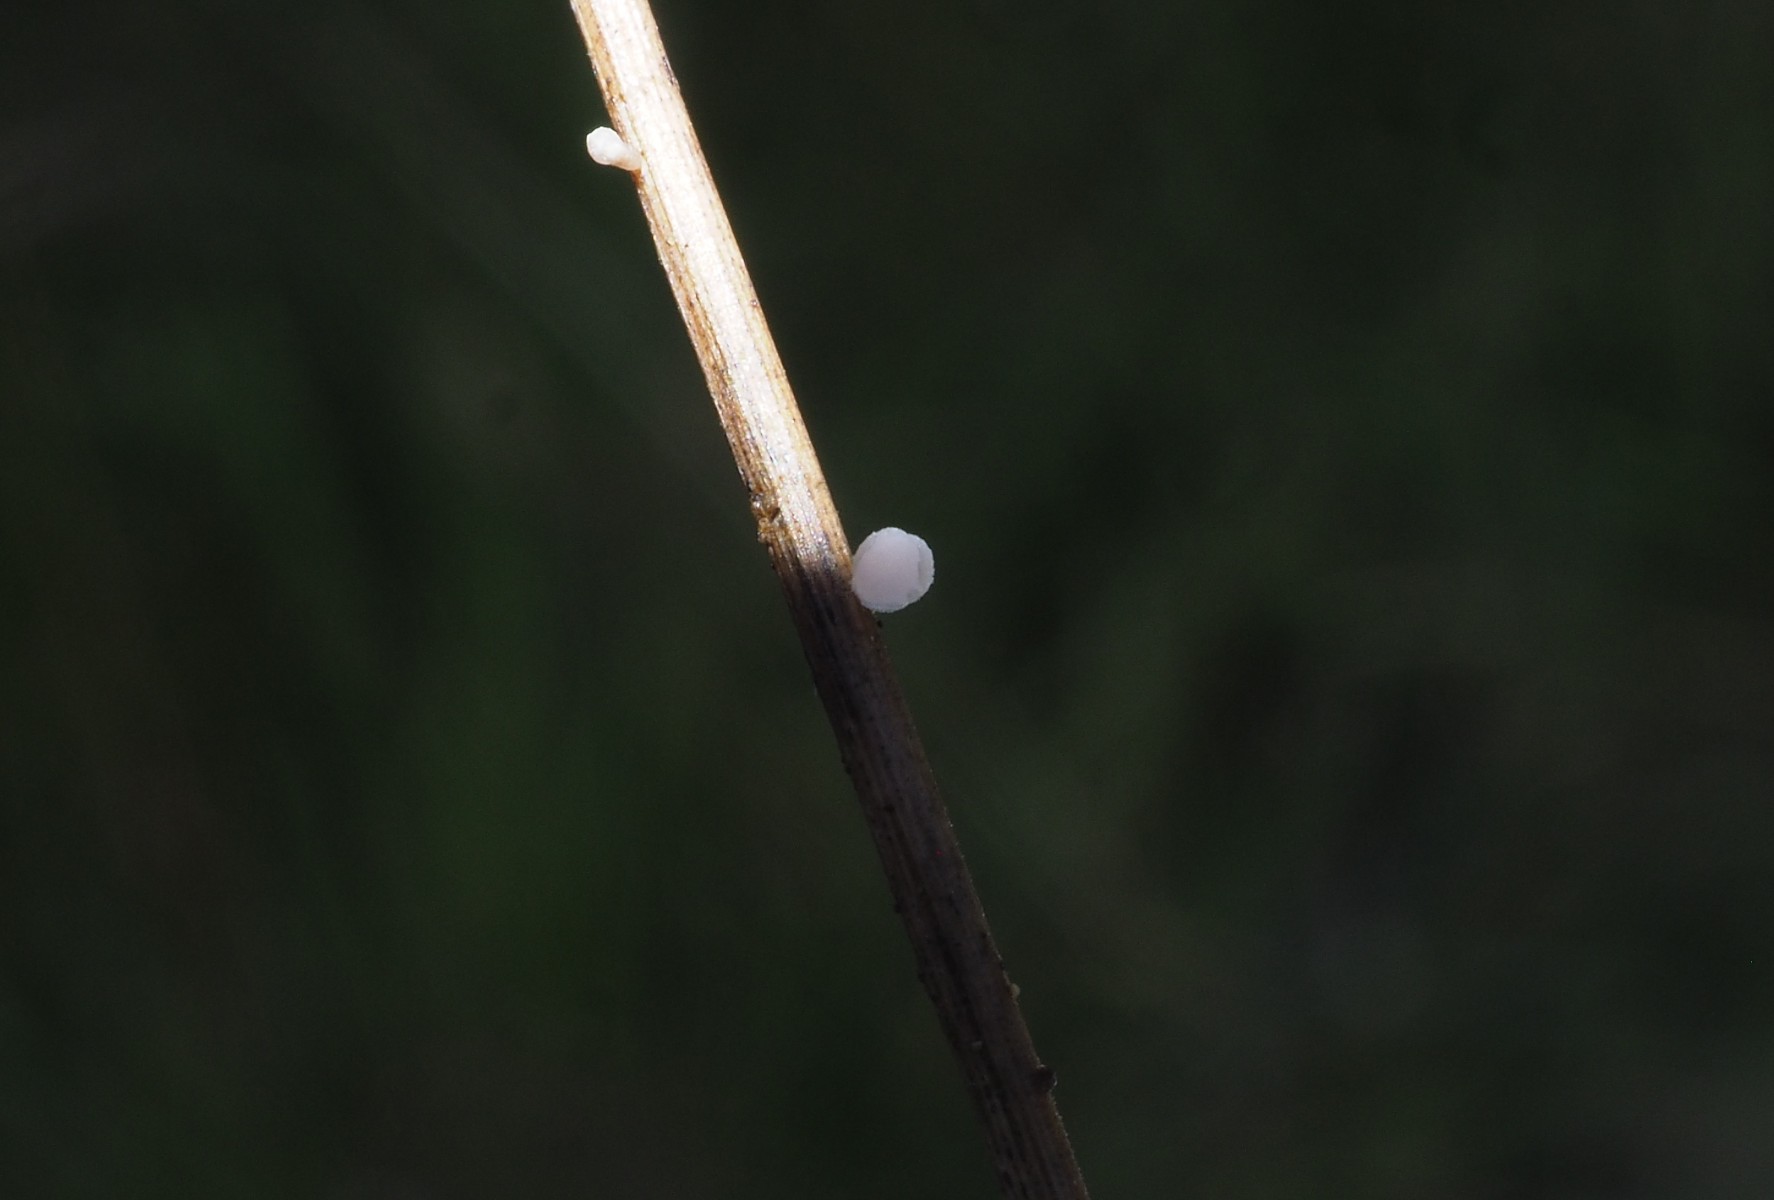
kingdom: Fungi
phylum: Ascomycota
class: Leotiomycetes
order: Helotiales
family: Helotiaceae
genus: Cyathicula
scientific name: Cyathicula culmicola
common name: græs-stilkskive
